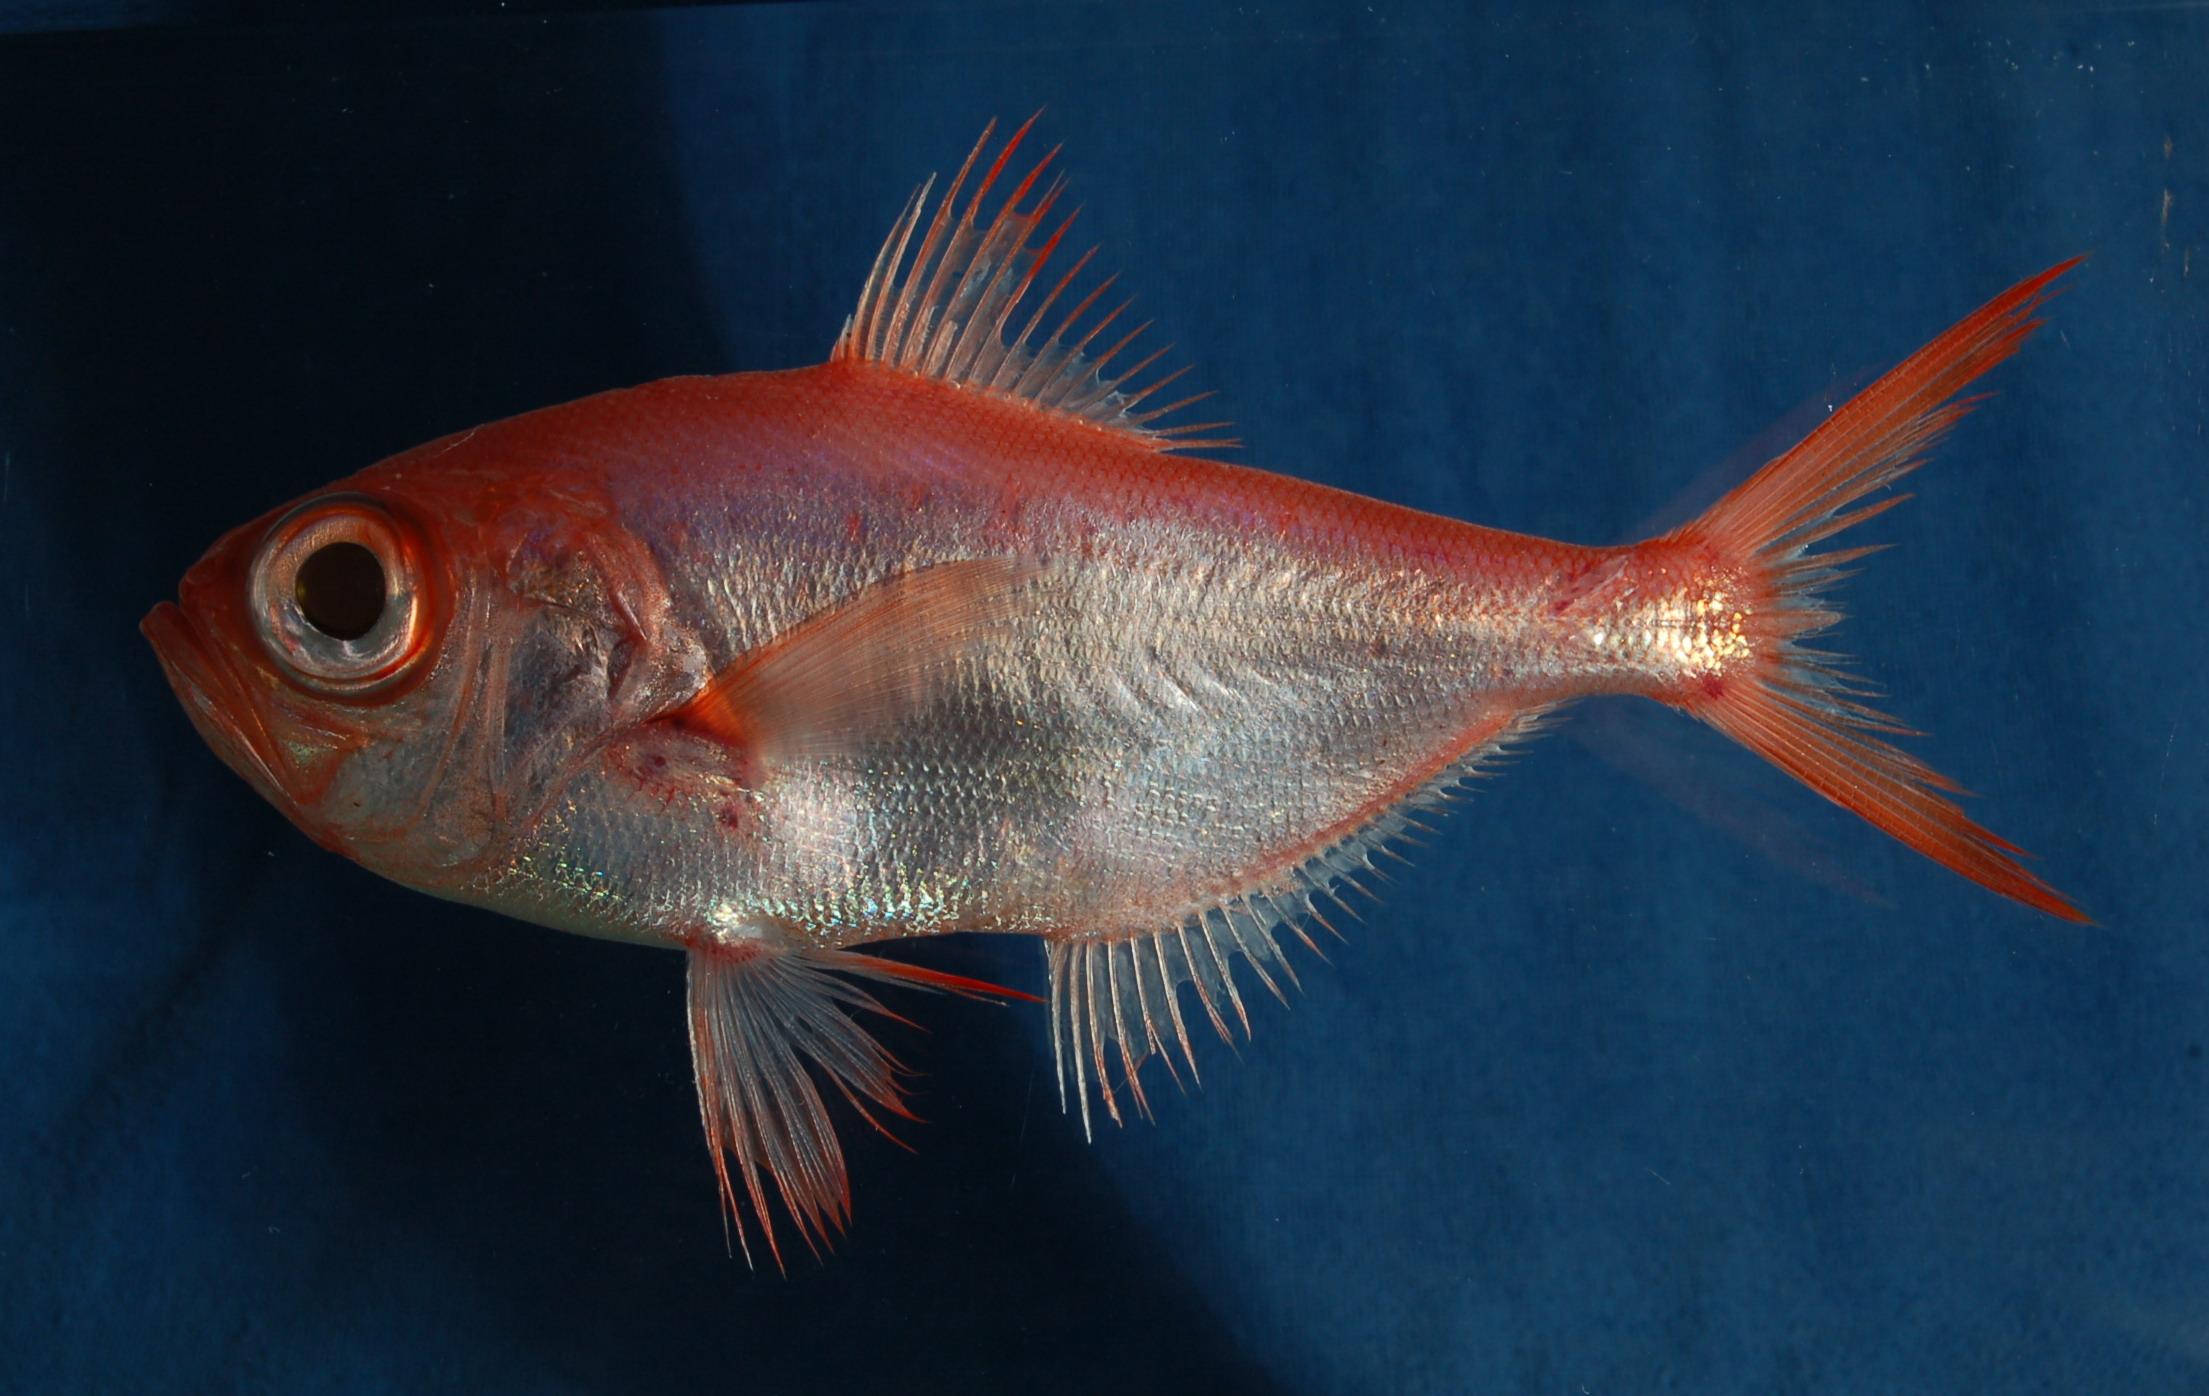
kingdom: Animalia
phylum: Chordata
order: Beryciformes
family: Berycidae
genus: Beryx
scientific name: Beryx splendens
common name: Lowe's beryx
